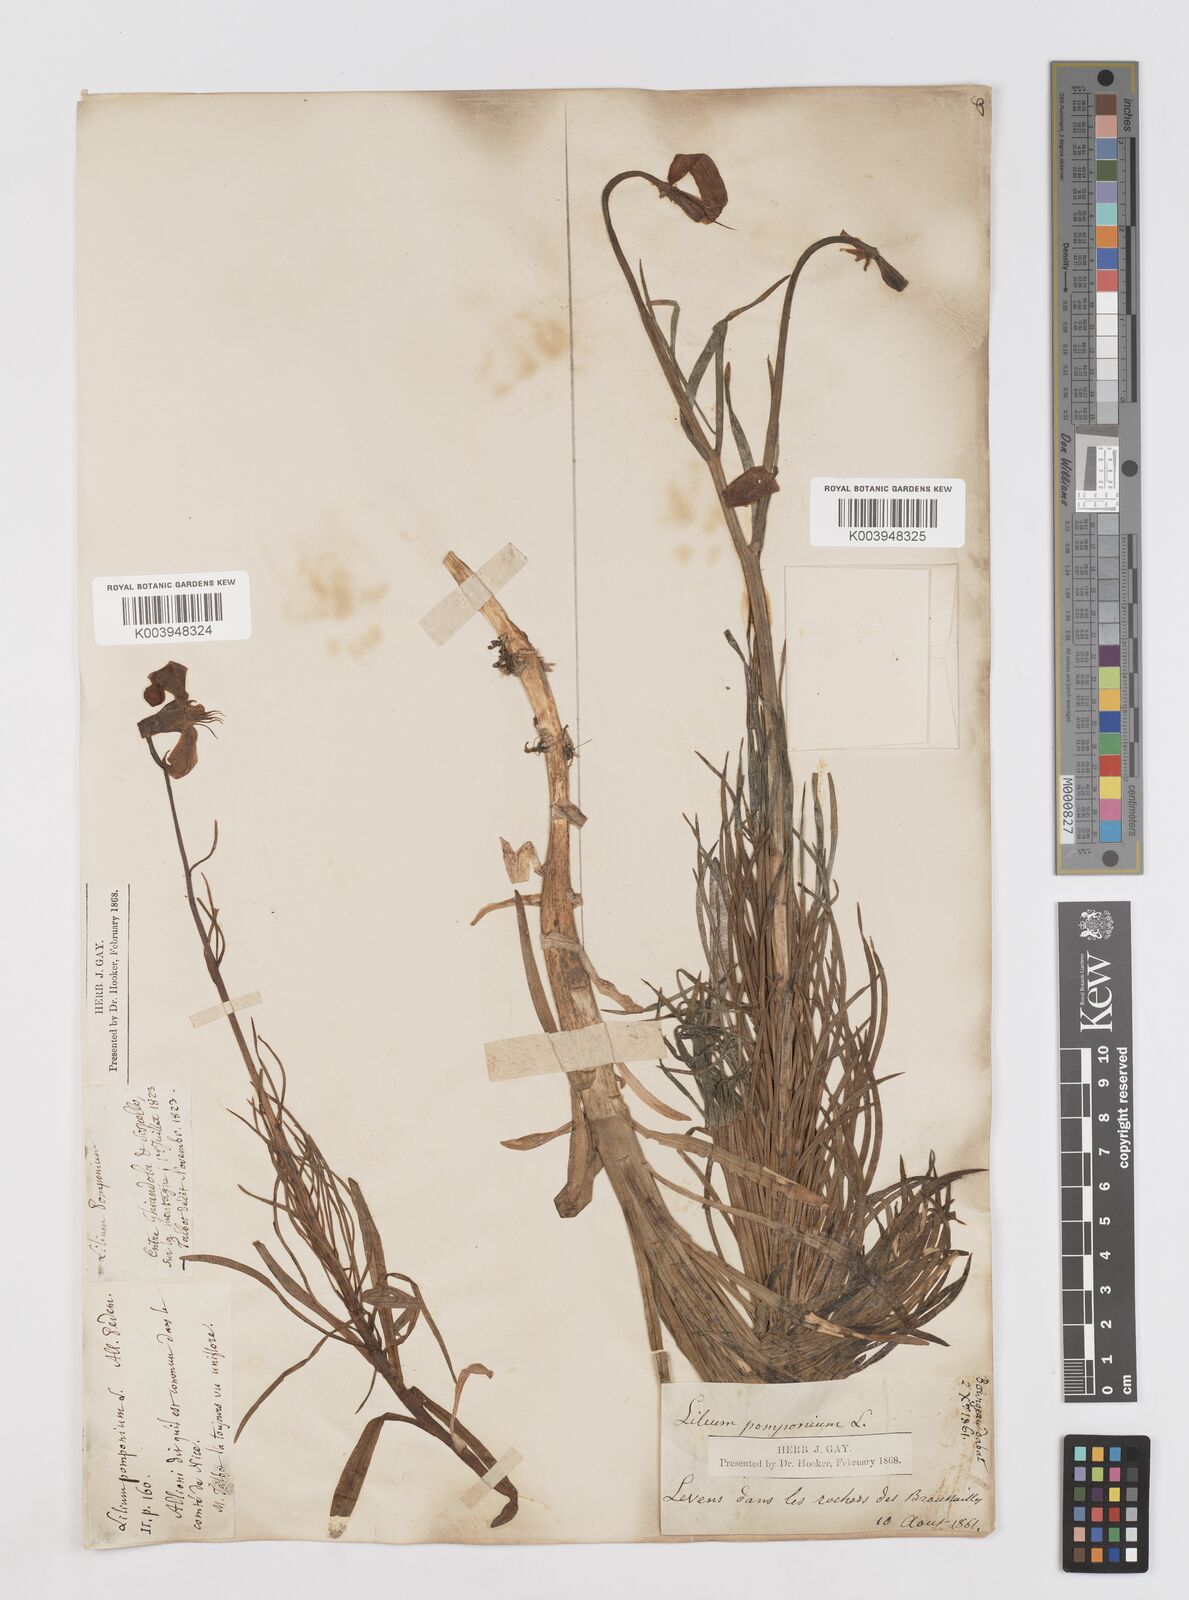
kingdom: Plantae
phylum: Tracheophyta
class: Liliopsida
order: Liliales
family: Liliaceae
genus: Lilium
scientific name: Lilium pomponium
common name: Minor turk's-cap lily
